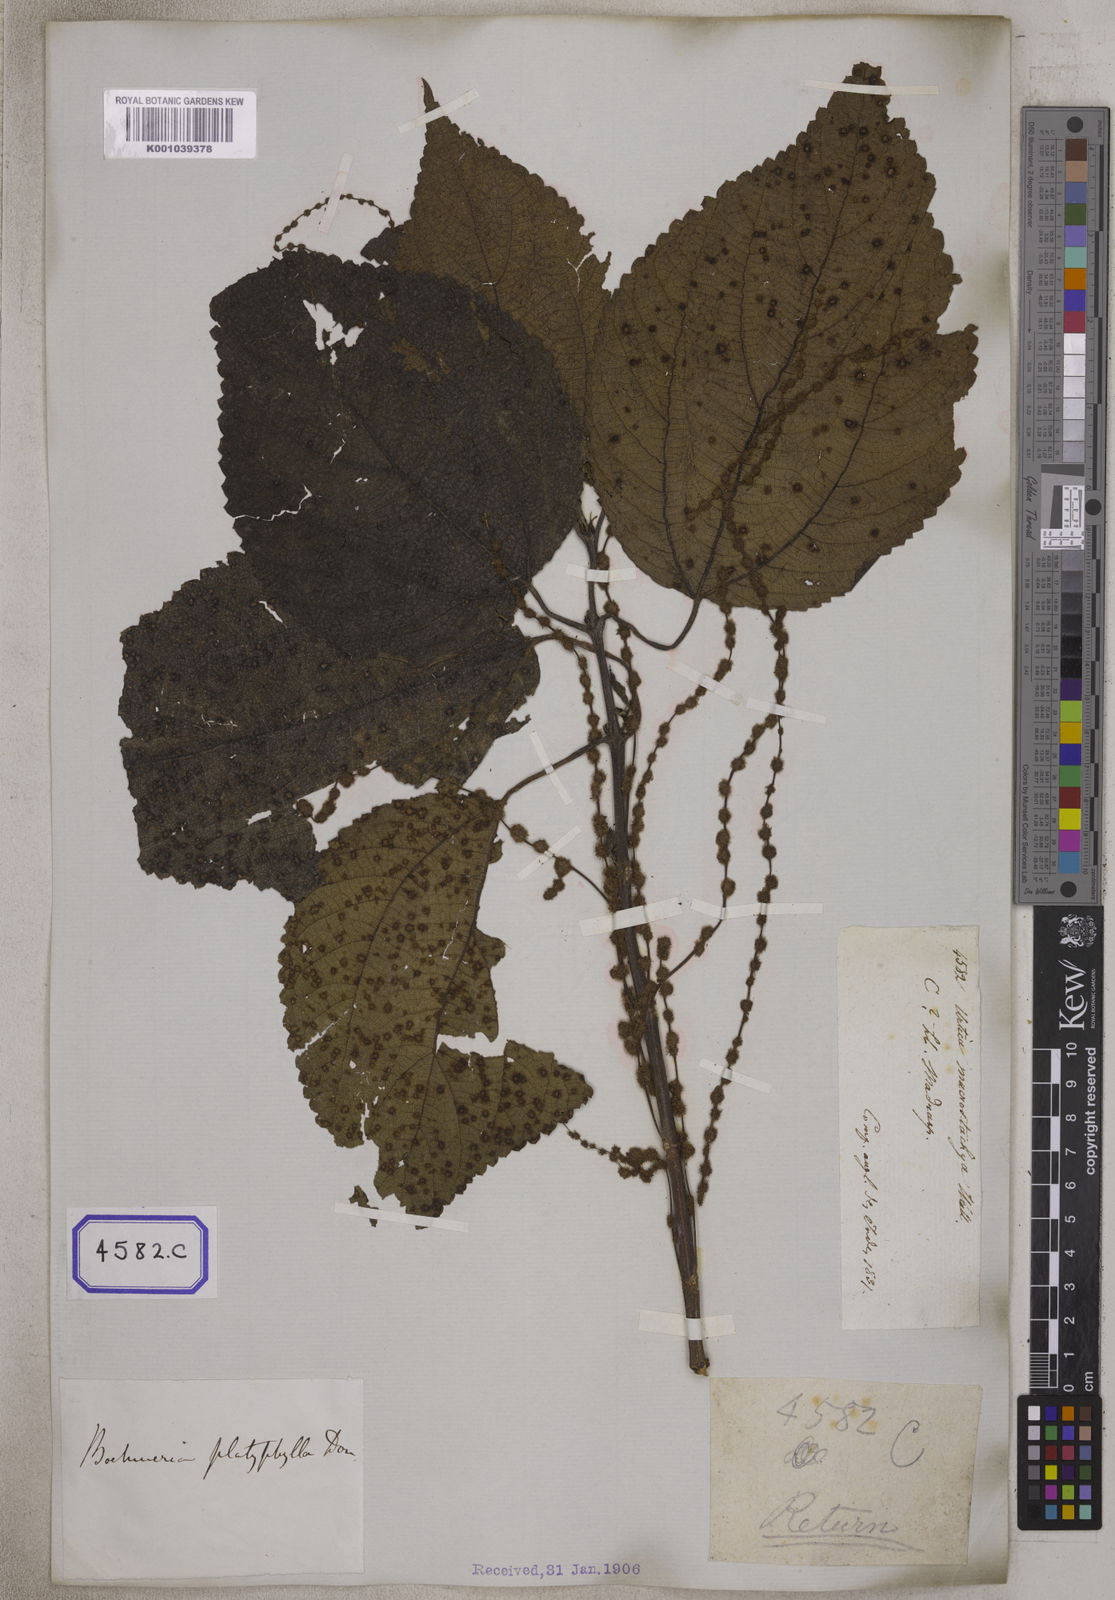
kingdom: Plantae
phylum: Tracheophyta
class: Magnoliopsida
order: Rosales
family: Urticaceae
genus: Boehmeria
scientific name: Boehmeria virgata
